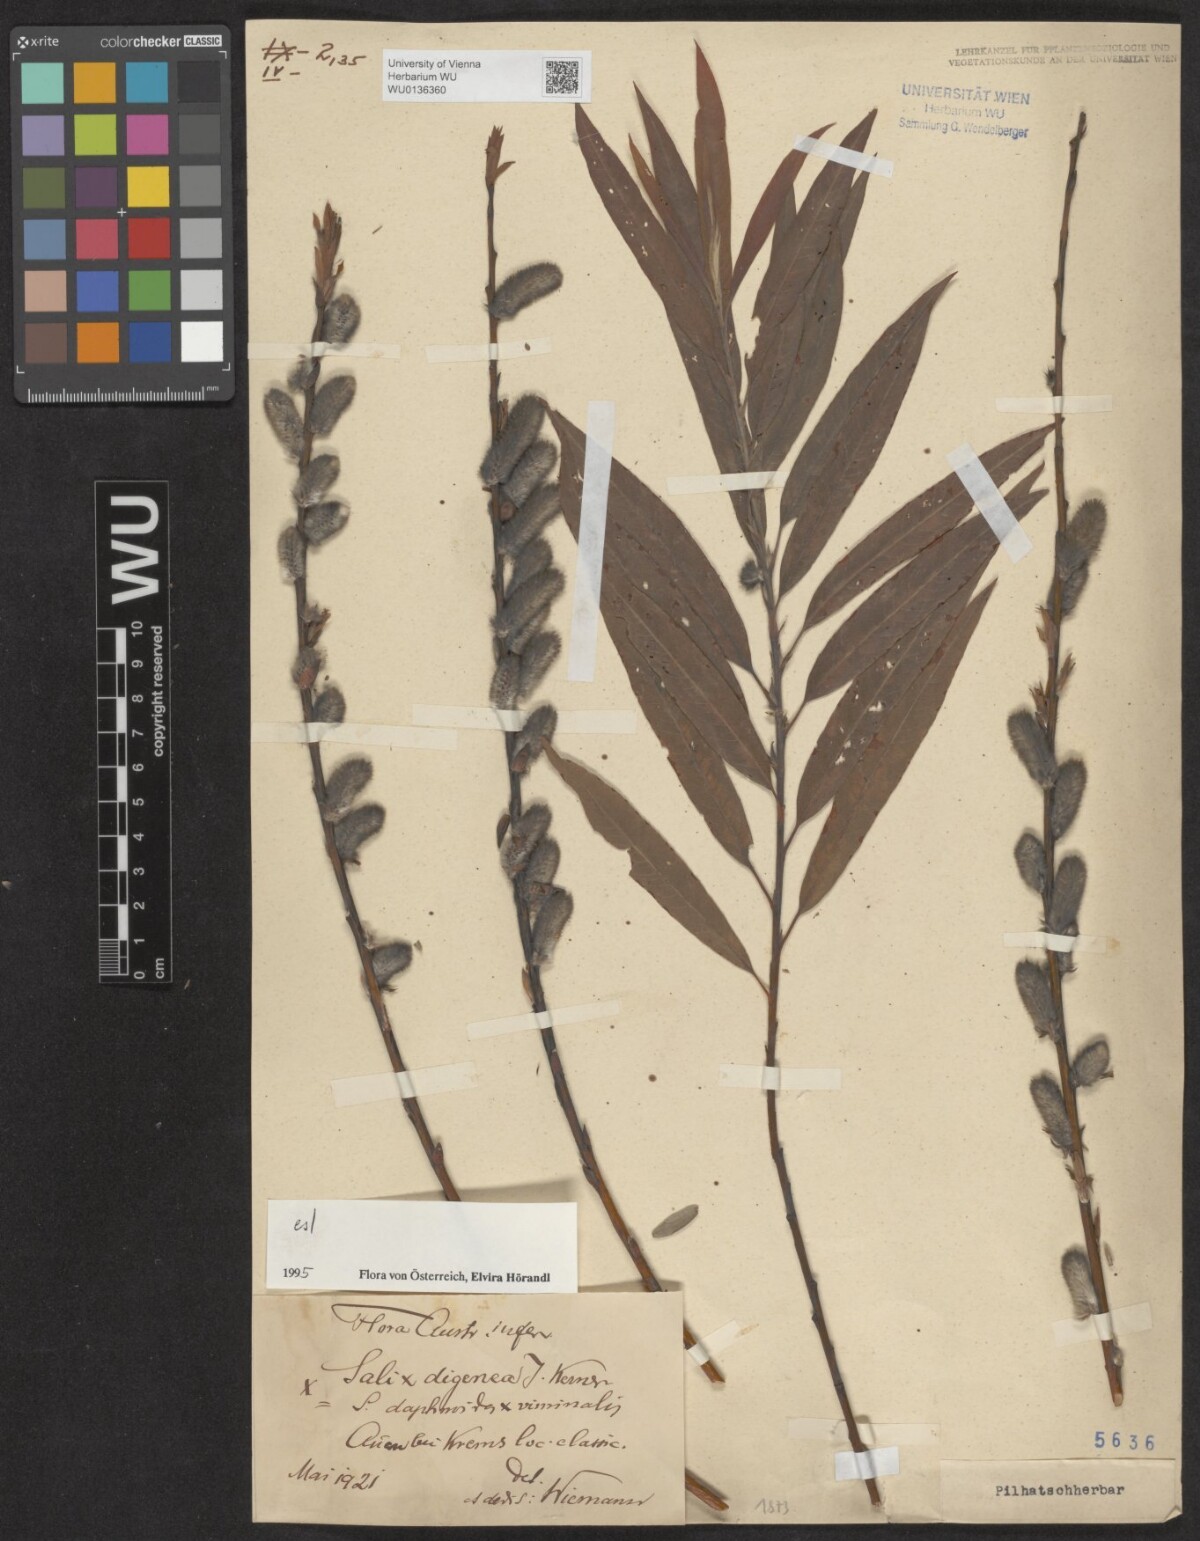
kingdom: Plantae
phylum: Tracheophyta
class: Magnoliopsida
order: Malpighiales
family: Salicaceae
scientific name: Salicaceae
